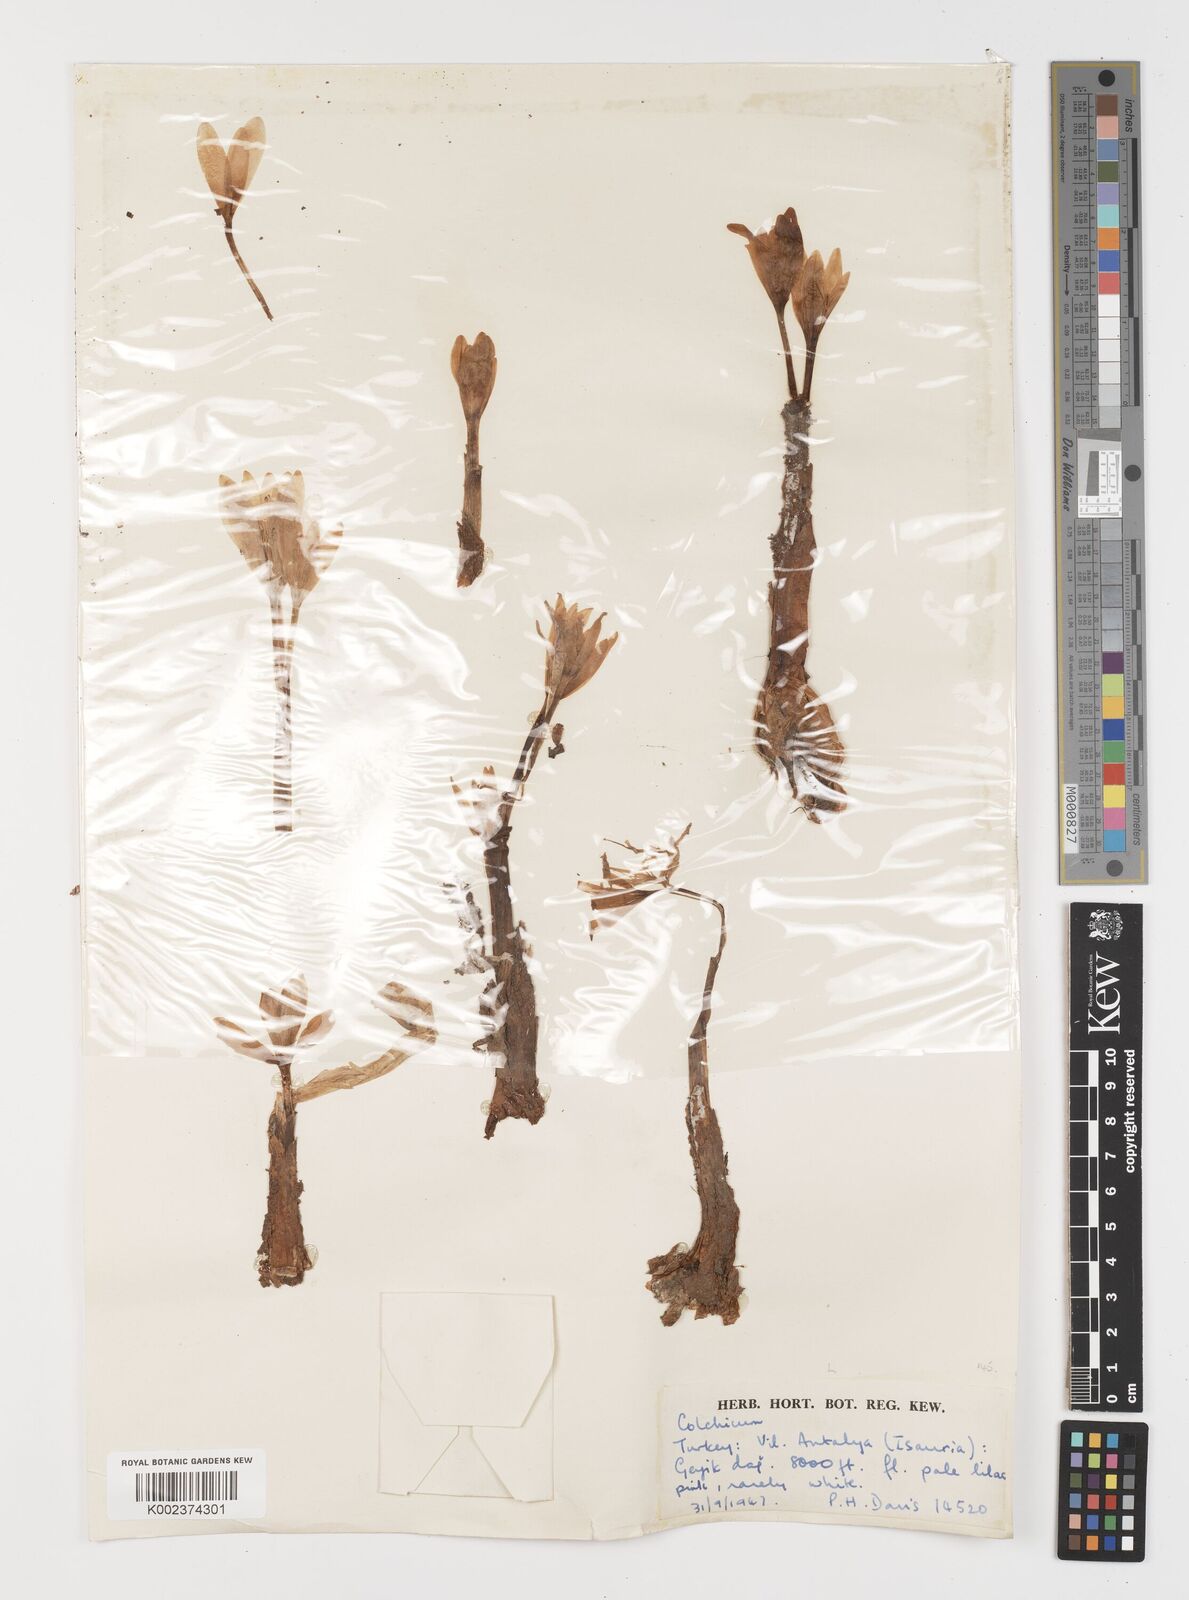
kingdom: Plantae
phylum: Tracheophyta
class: Liliopsida
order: Liliales
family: Colchicaceae
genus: Colchicum
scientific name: Colchicum
